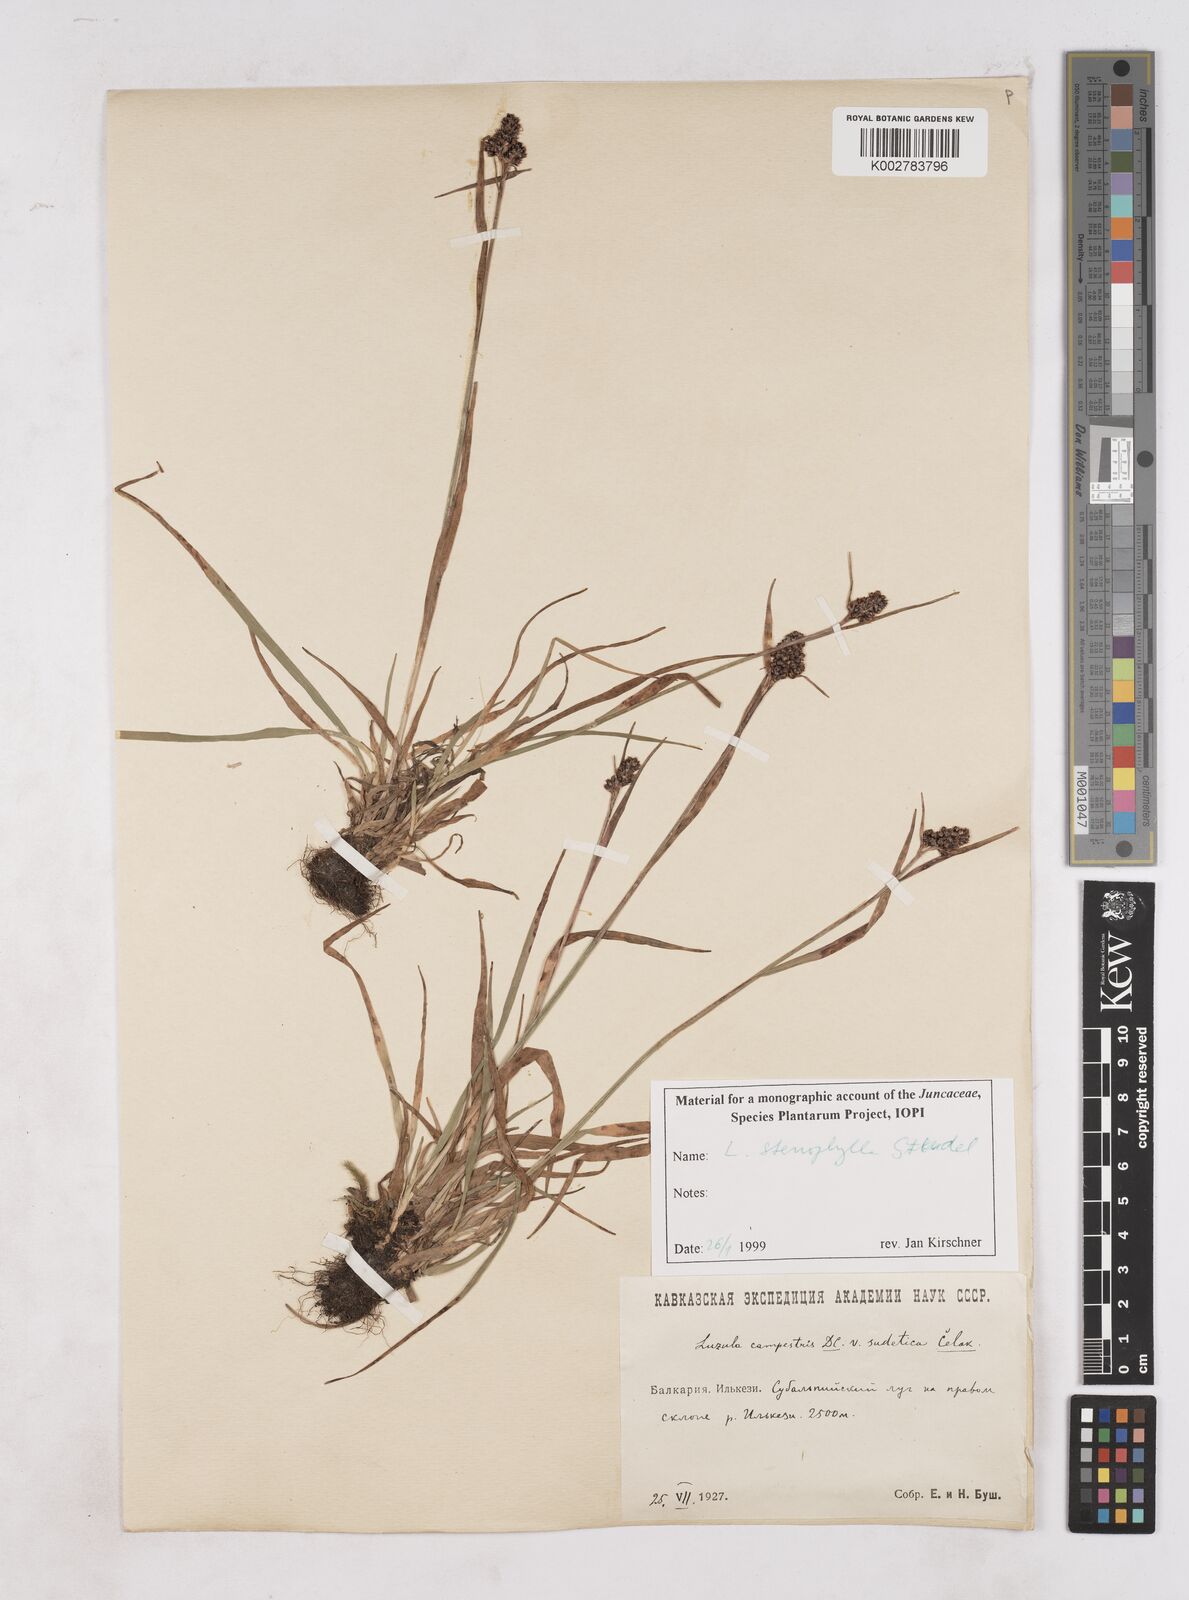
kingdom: Plantae
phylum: Tracheophyta
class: Liliopsida
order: Poales
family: Juncaceae
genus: Luzula
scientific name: Luzula campestris
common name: Field wood-rush
